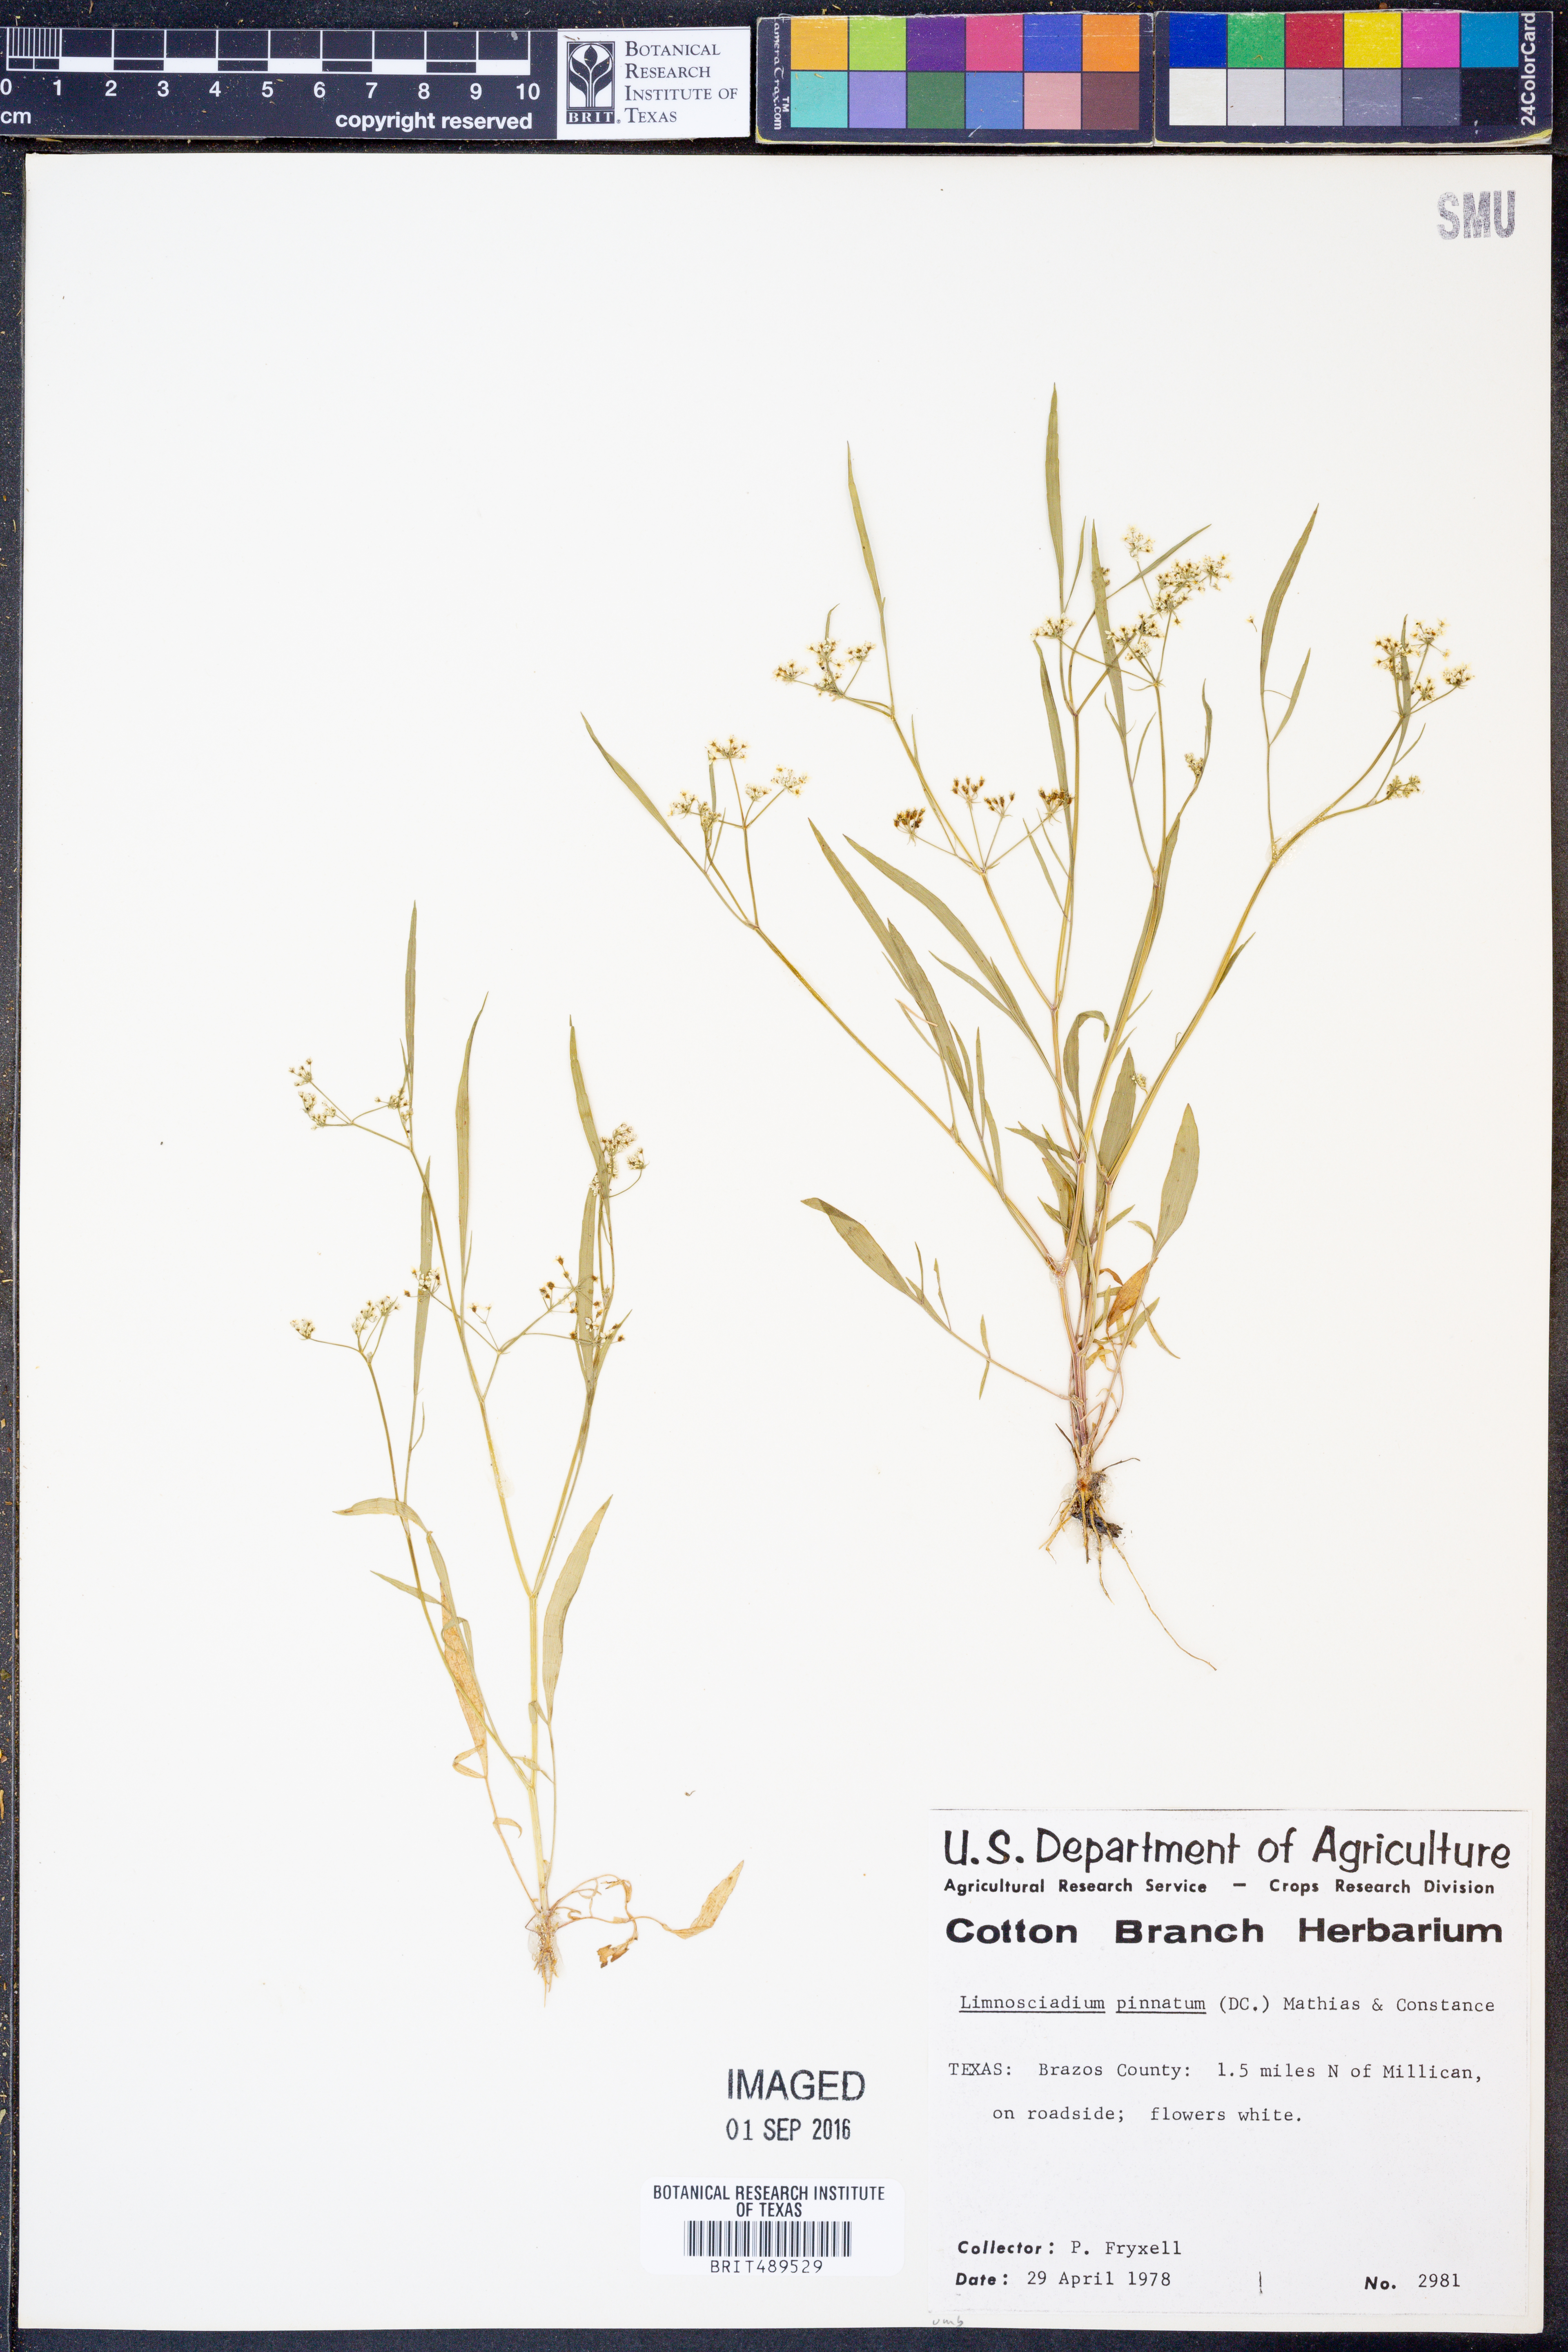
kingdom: Plantae
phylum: Tracheophyta
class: Magnoliopsida
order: Apiales
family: Apiaceae
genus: Limnosciadium
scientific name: Limnosciadium pinnatum
